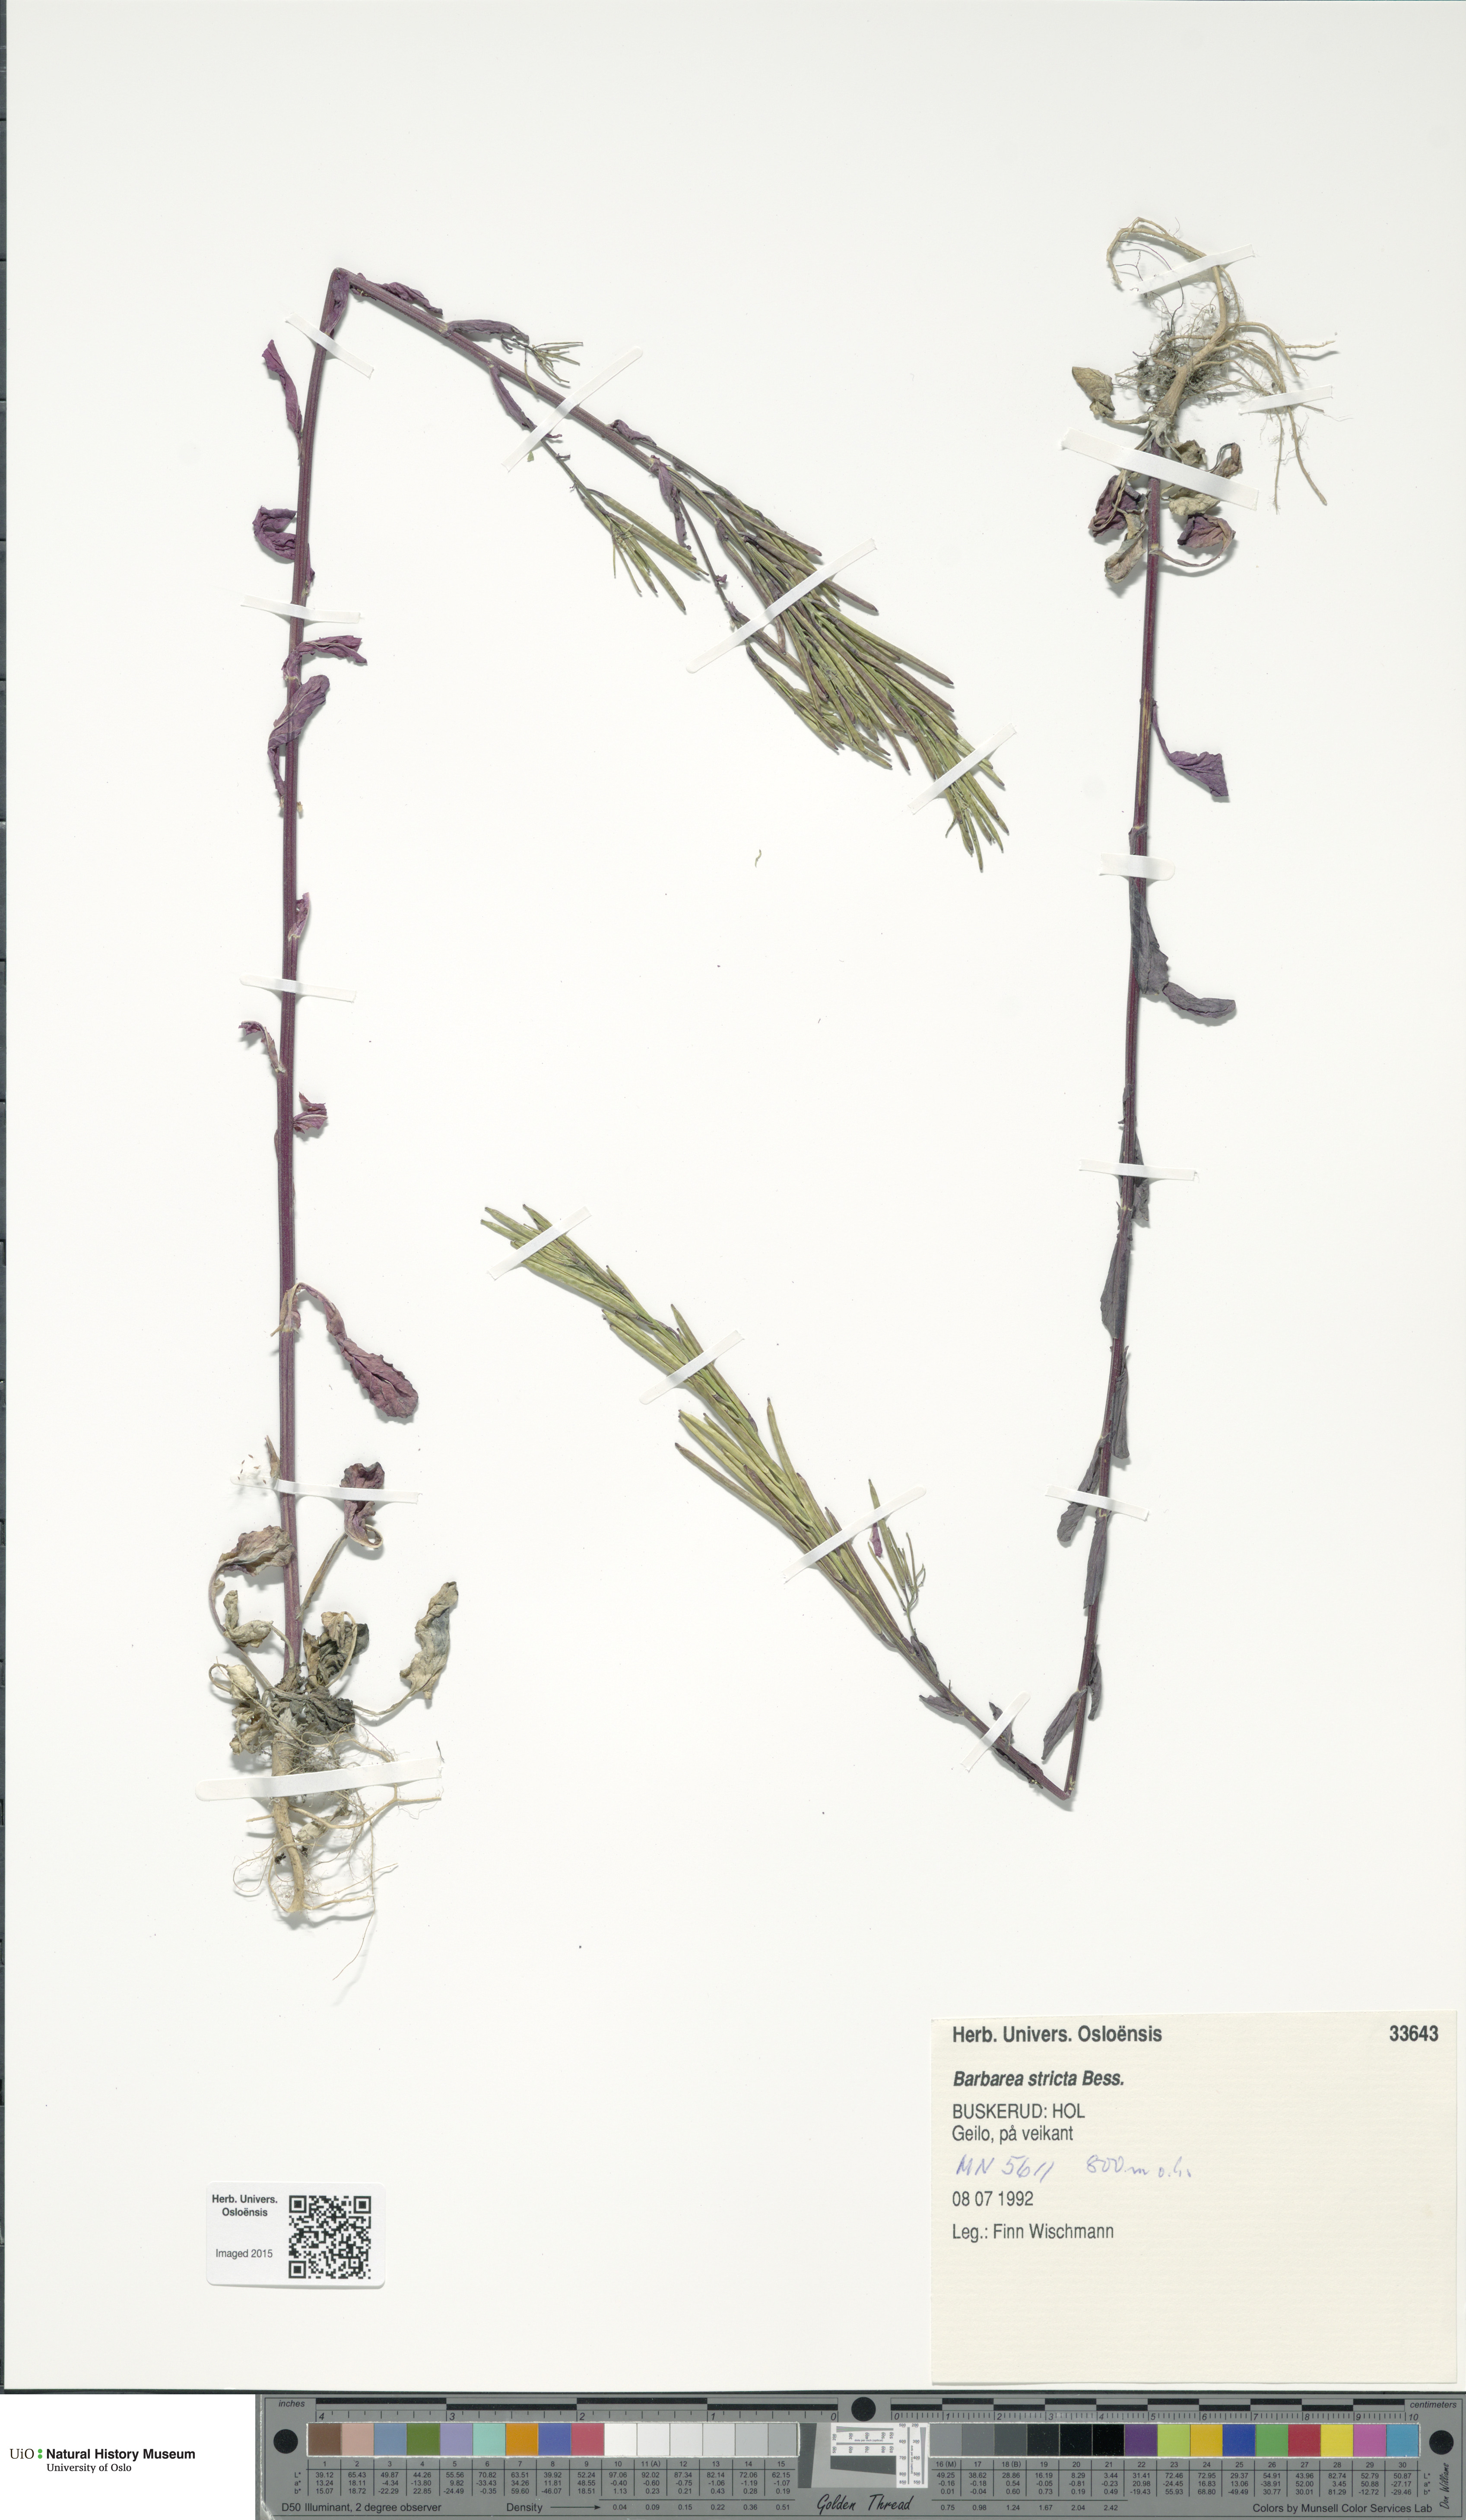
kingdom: Plantae
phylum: Tracheophyta
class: Magnoliopsida
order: Brassicales
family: Brassicaceae
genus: Barbarea
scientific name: Barbarea stricta
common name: Small-flowered winter-cress
